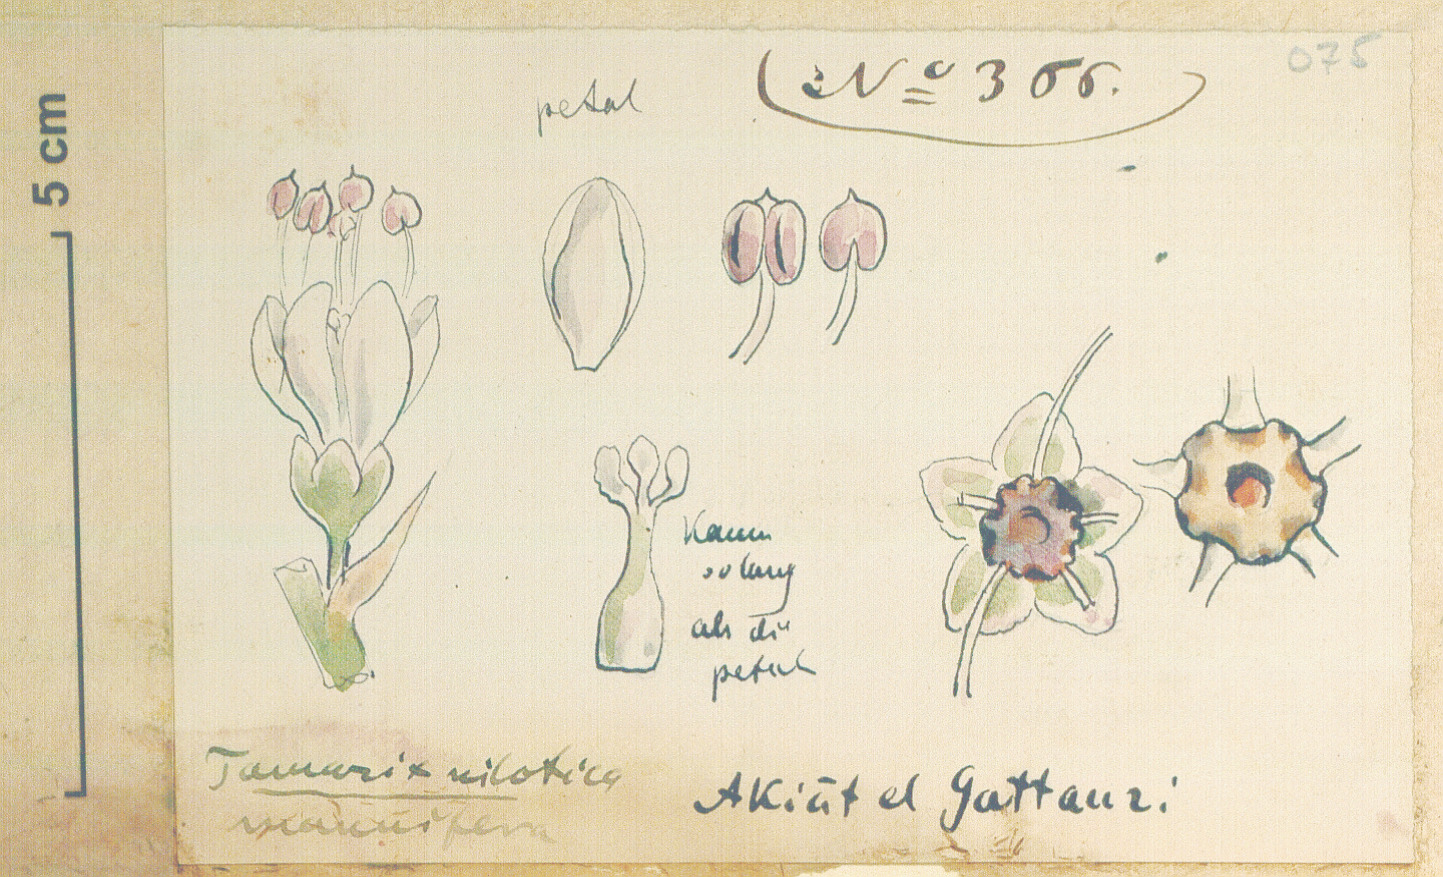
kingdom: Plantae
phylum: Tracheophyta
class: Magnoliopsida
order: Caryophyllales
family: Tamaricaceae
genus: Tamarix
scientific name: Tamarix nilotica
